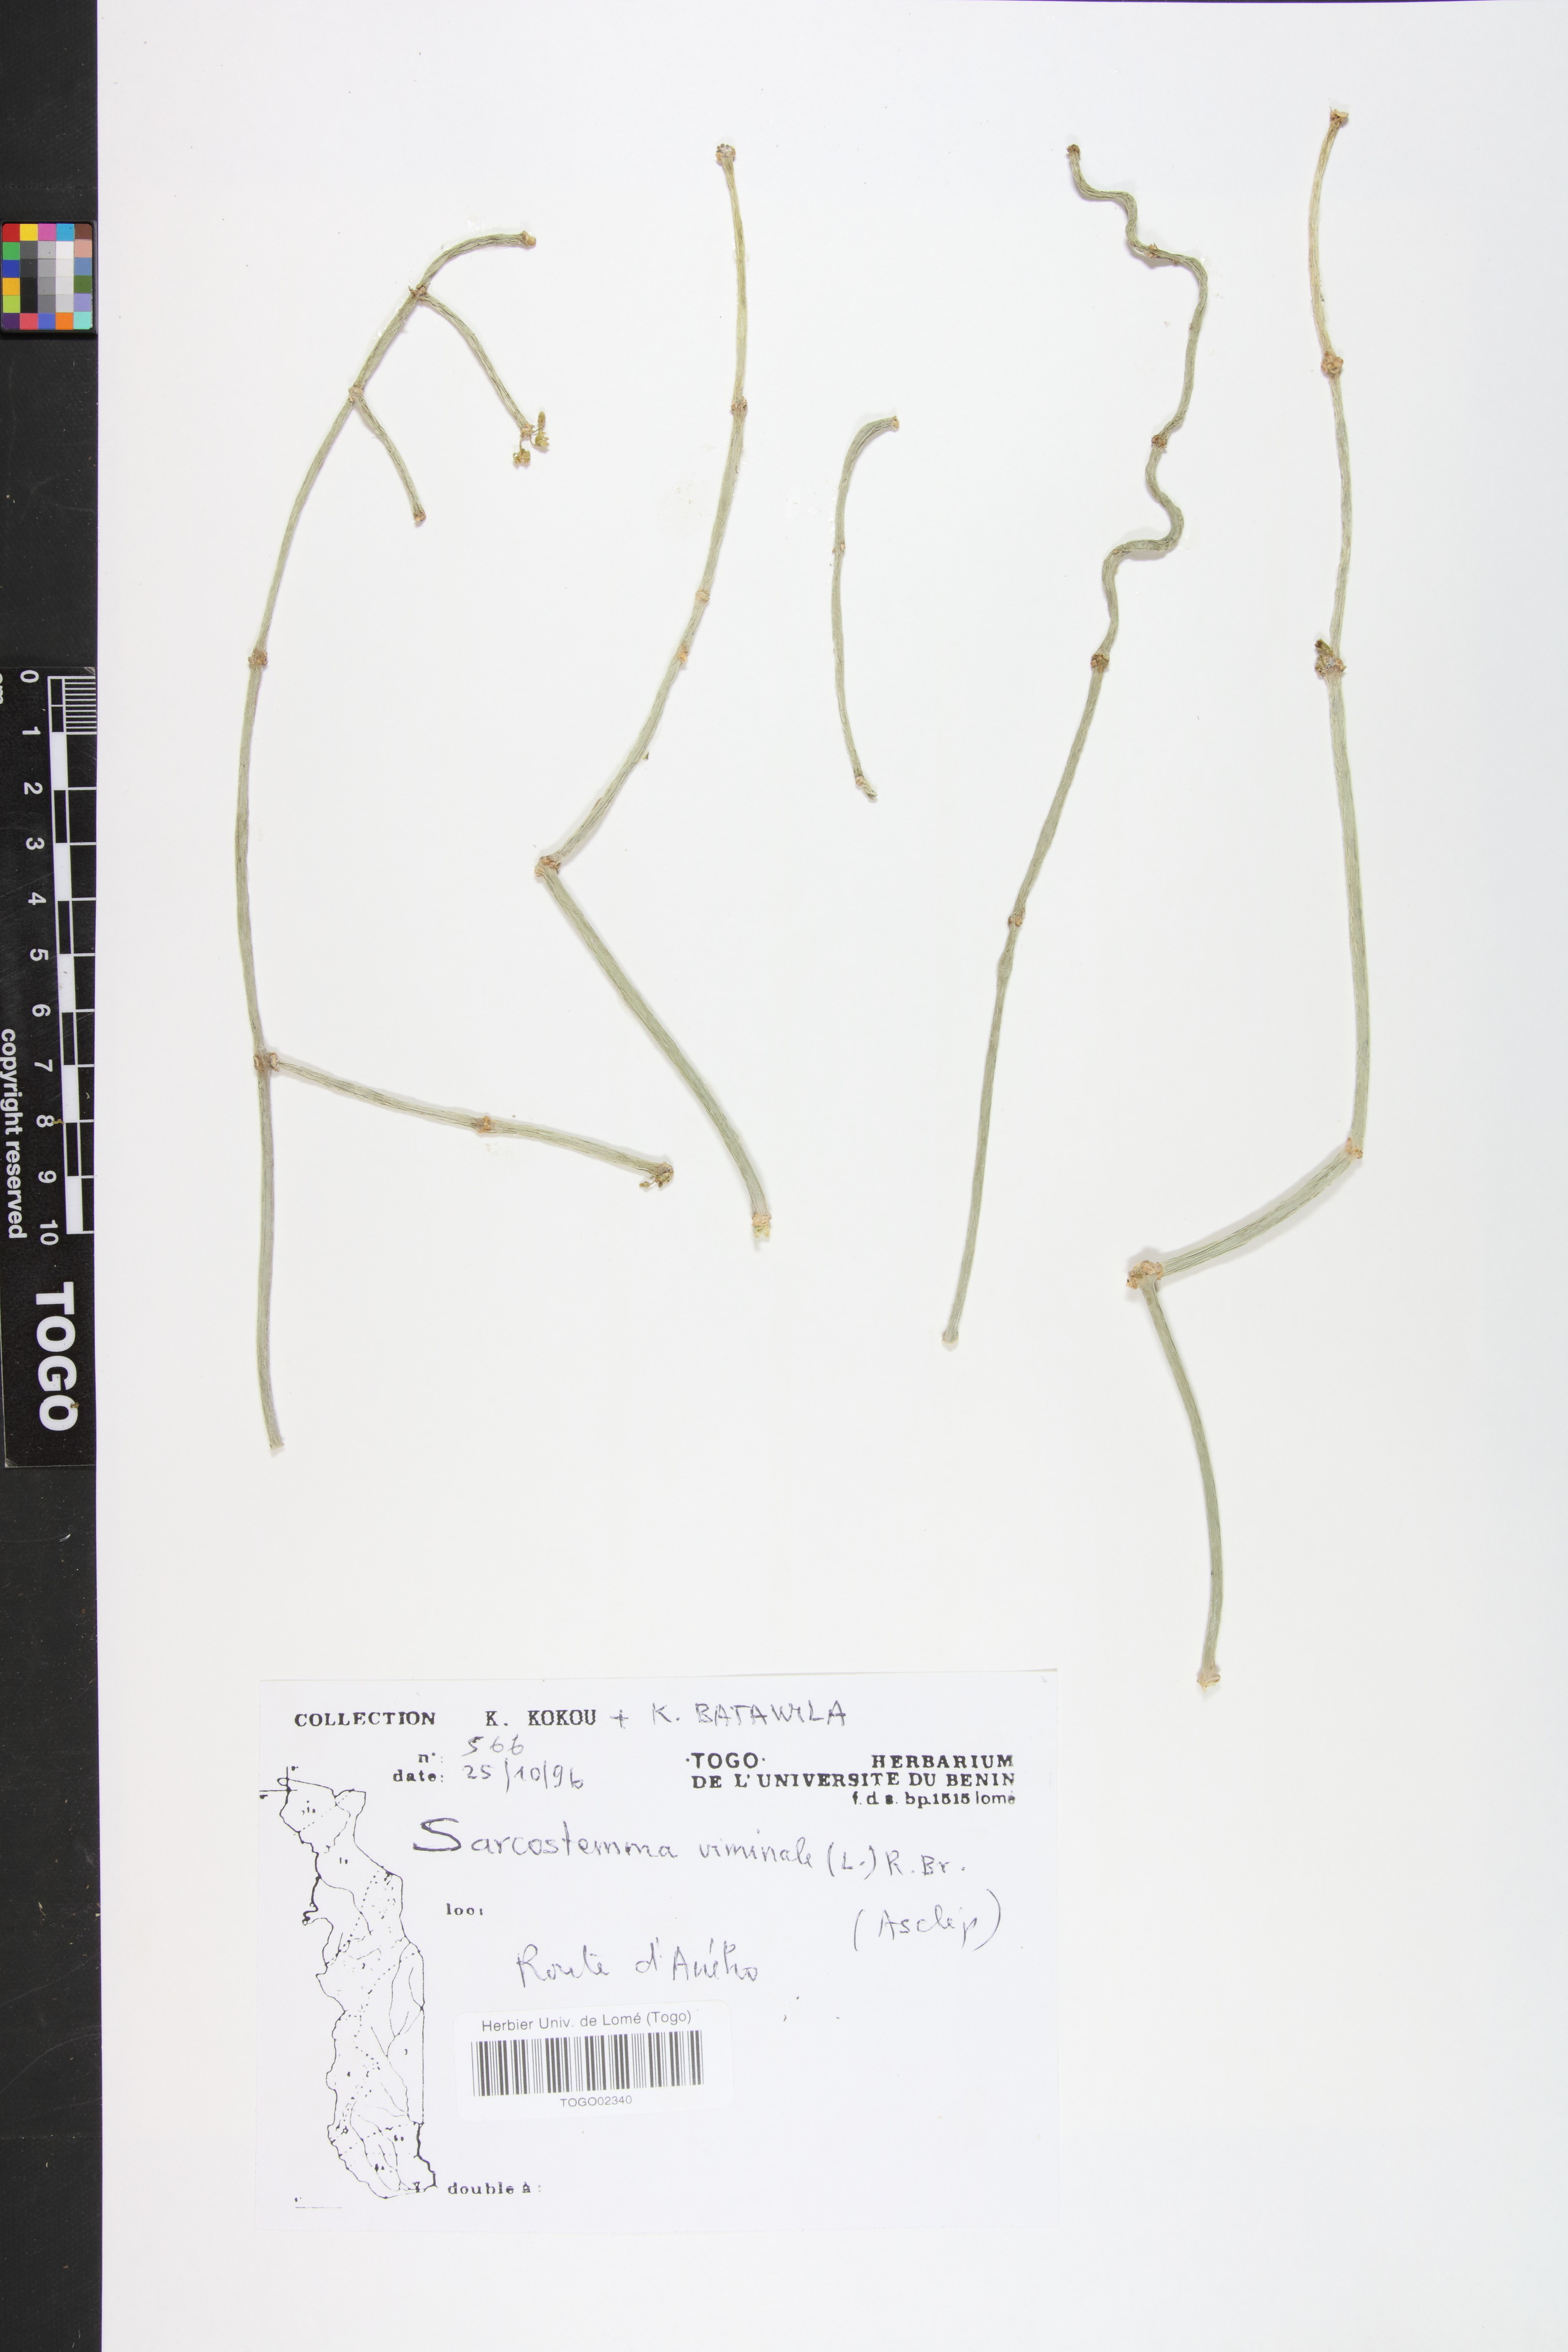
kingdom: Plantae
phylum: Tracheophyta
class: Magnoliopsida
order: Gentianales
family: Apocynaceae
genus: Cynanchum
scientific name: Cynanchum viminale
